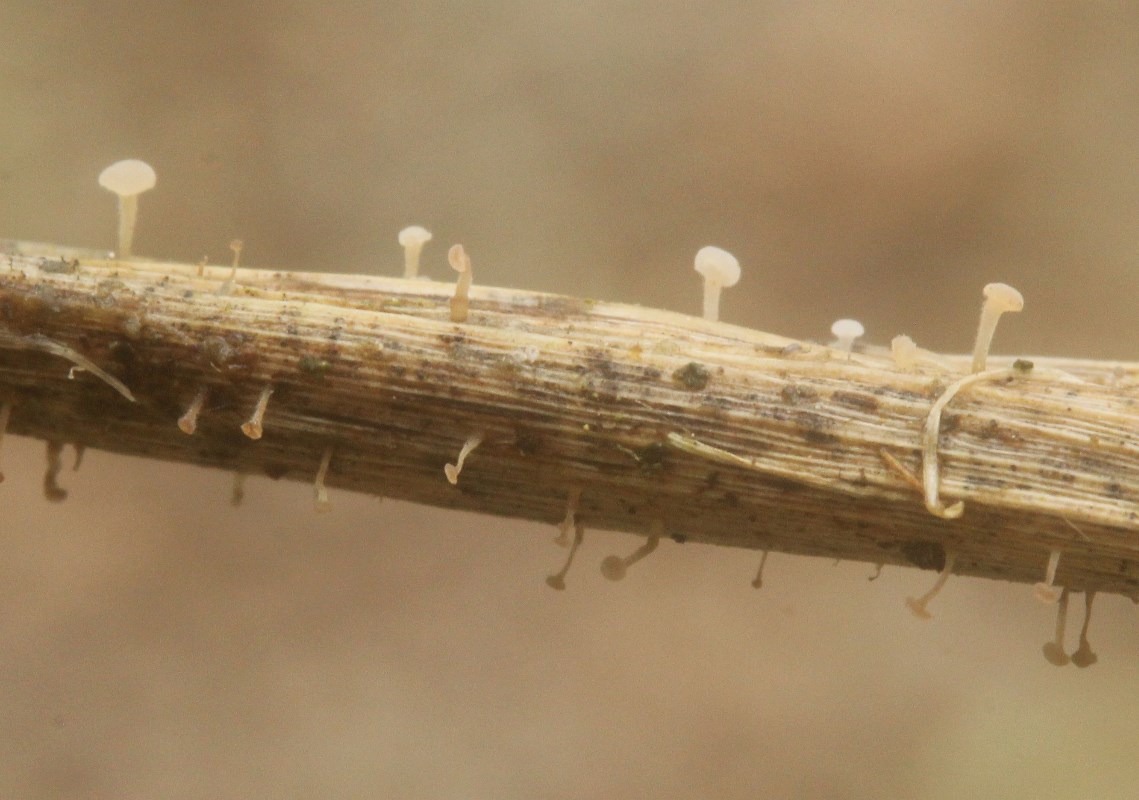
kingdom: Fungi
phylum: Basidiomycota
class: Agaricomycetes
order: Agaricales
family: Typhulaceae
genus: Typhula
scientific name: Typhula
